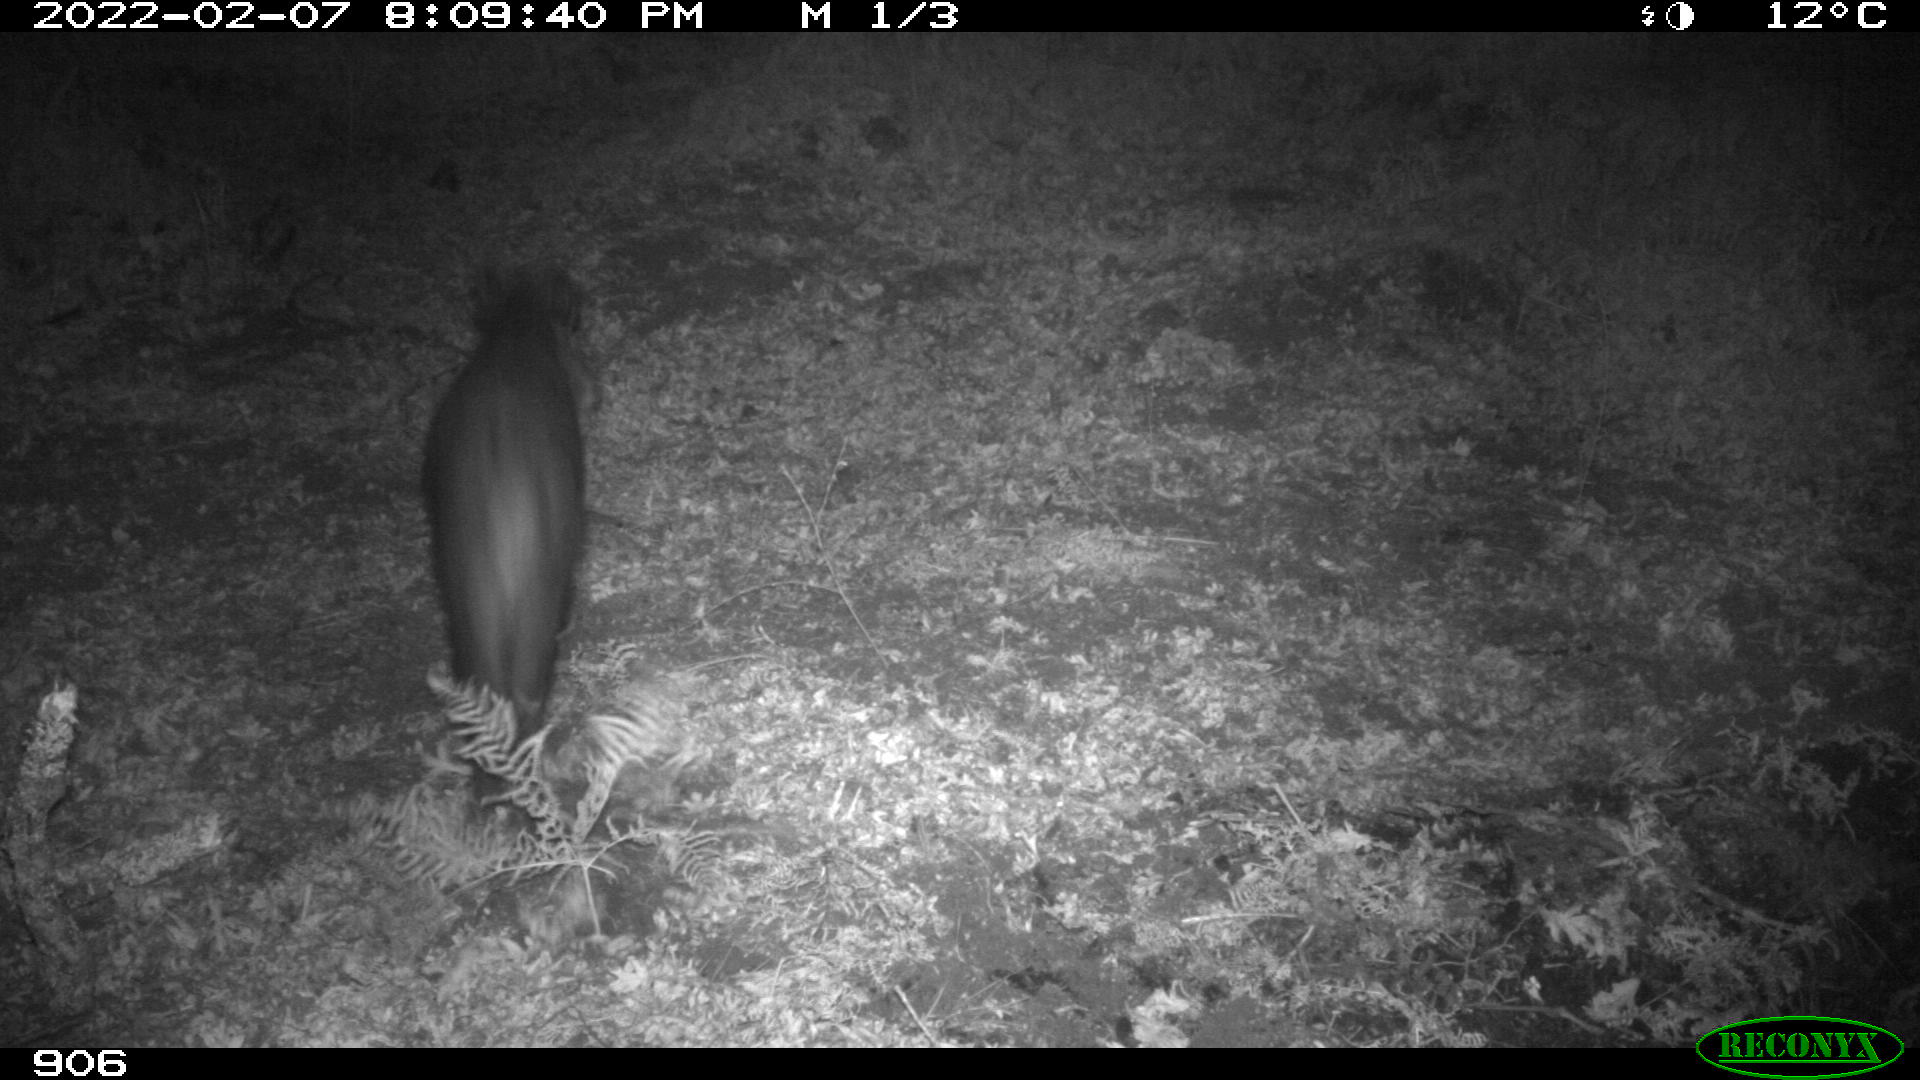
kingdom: Animalia
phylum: Chordata
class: Mammalia
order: Artiodactyla
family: Suidae
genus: Sus
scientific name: Sus scrofa
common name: Wild boar
